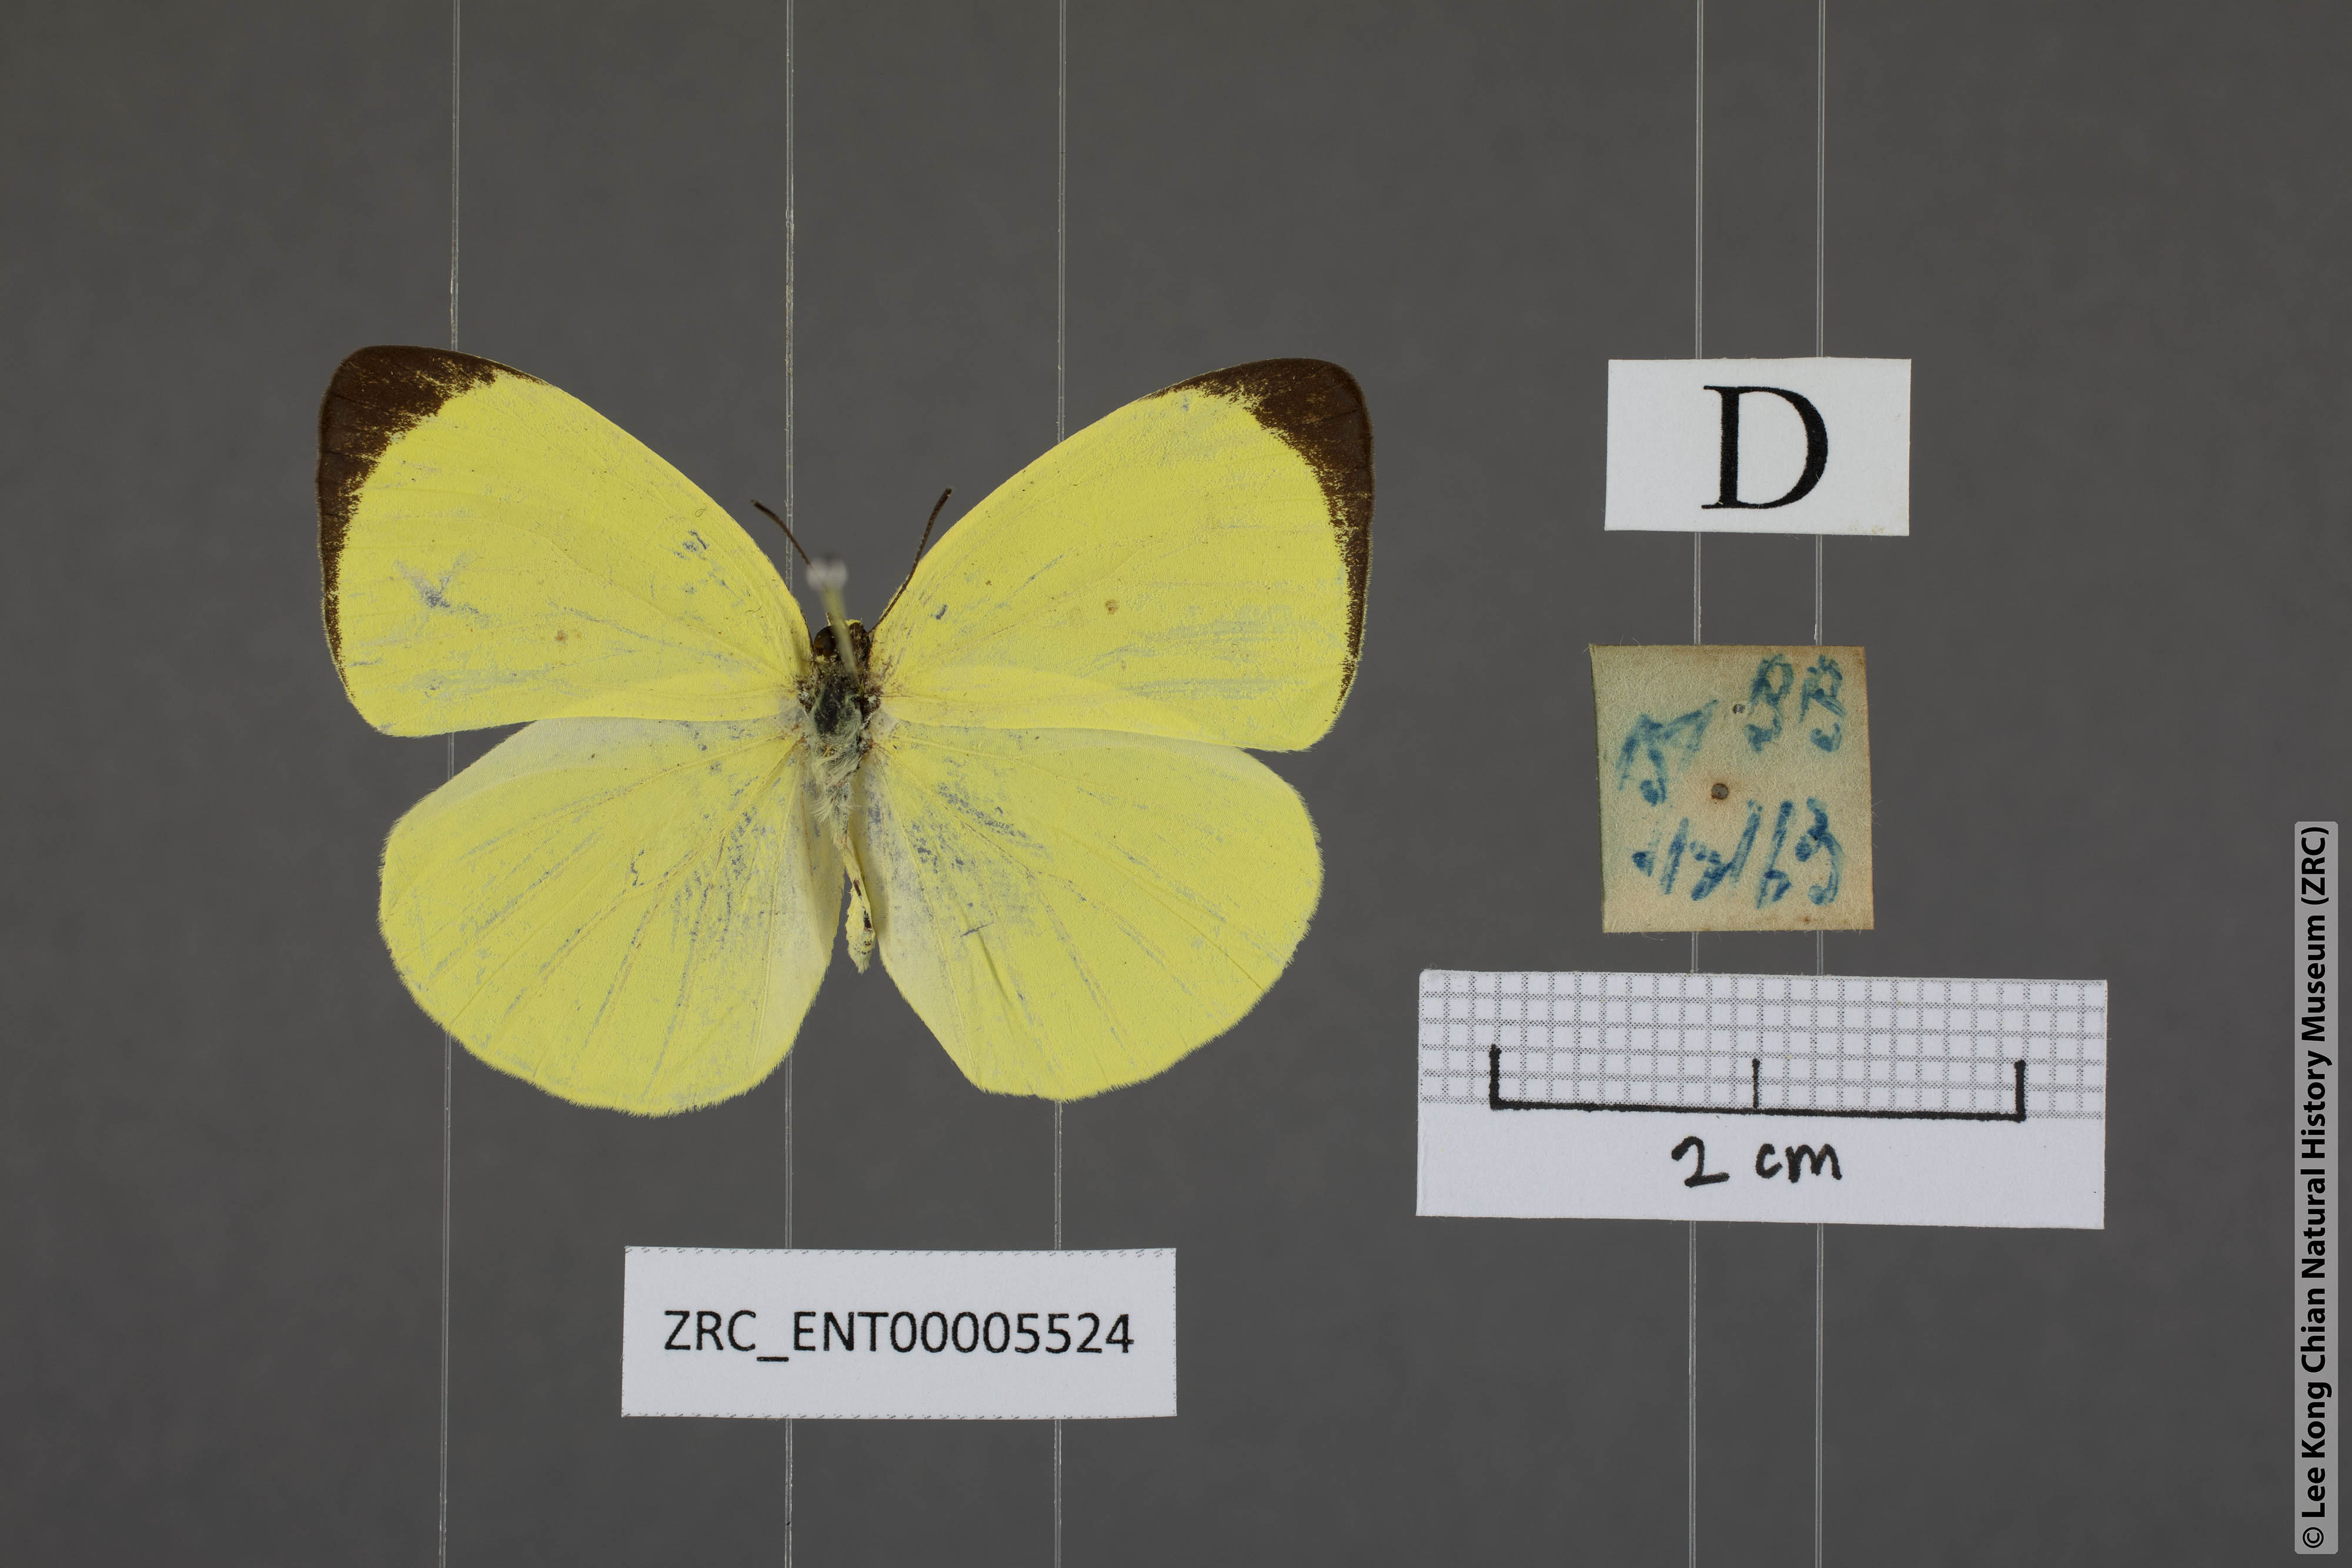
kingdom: Animalia
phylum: Arthropoda
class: Insecta
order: Lepidoptera
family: Pieridae
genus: Gandaca
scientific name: Gandaca harina
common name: Tree yellow
